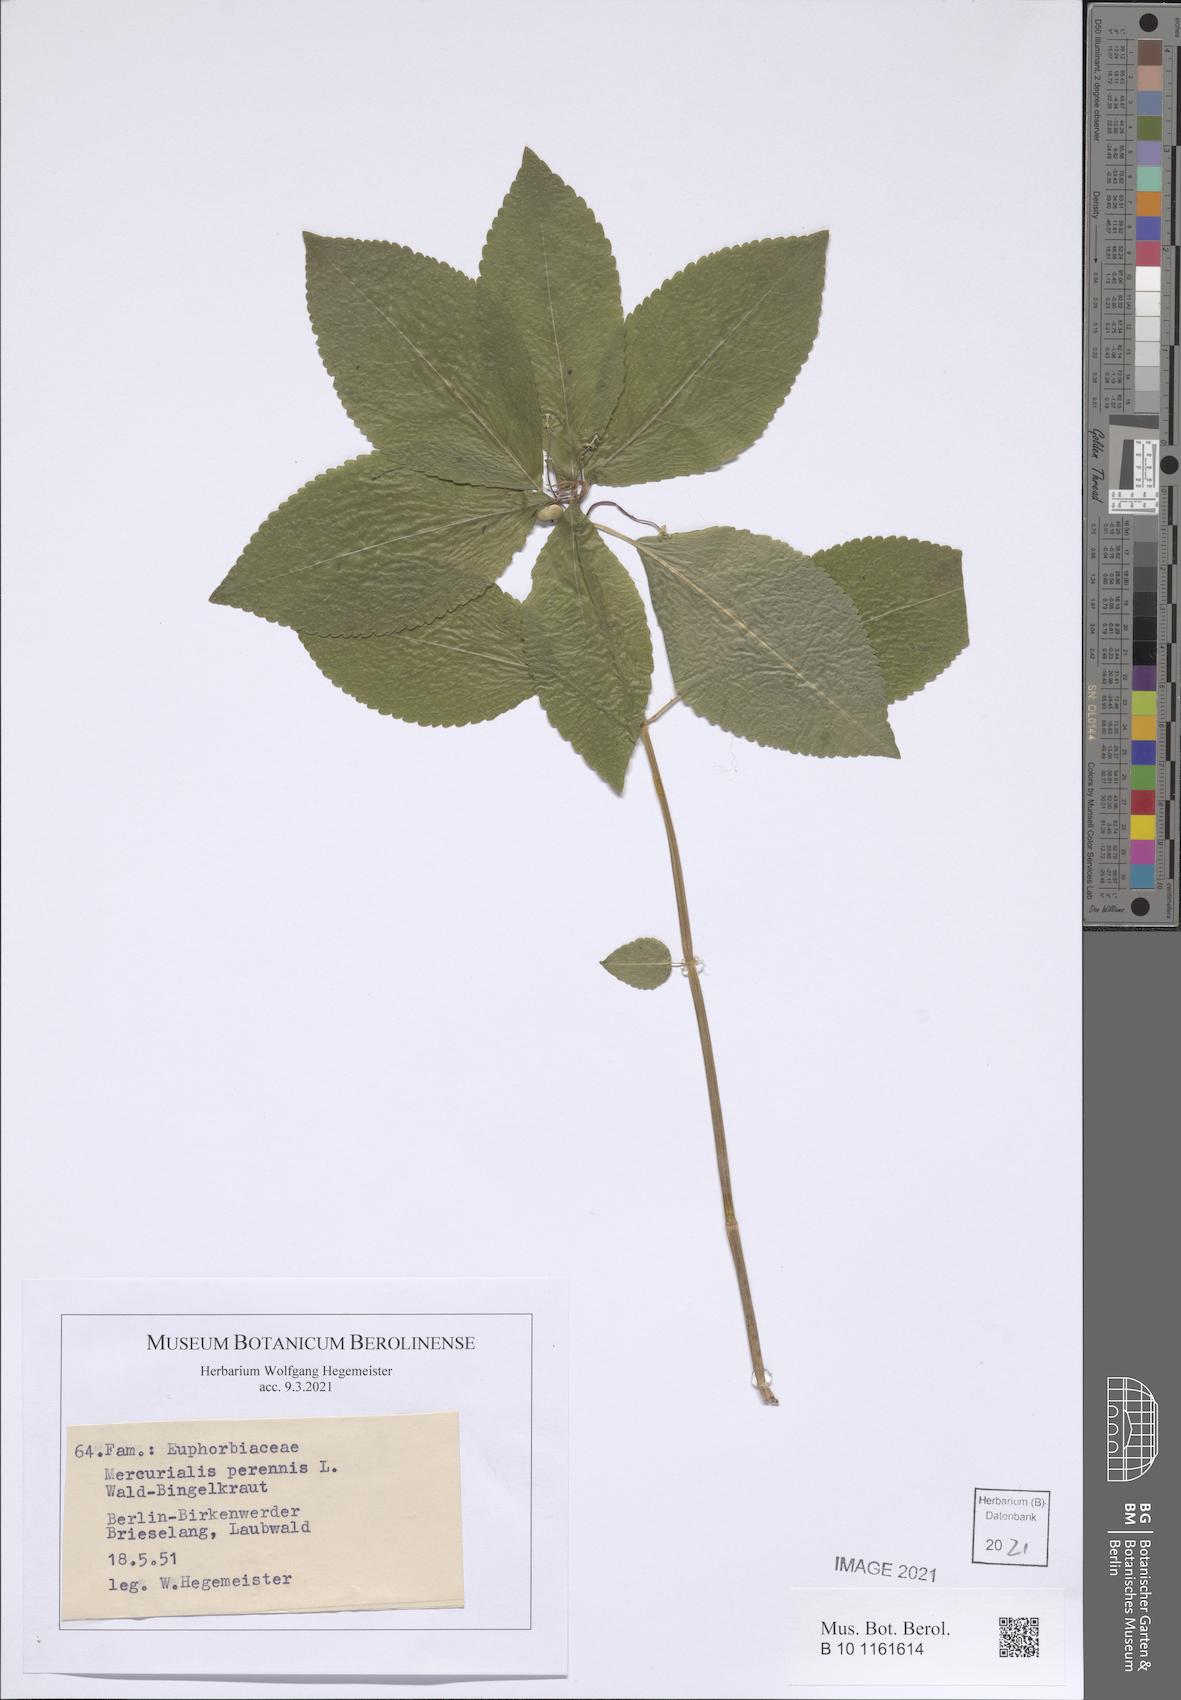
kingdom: Plantae
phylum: Tracheophyta
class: Magnoliopsida
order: Malpighiales
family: Euphorbiaceae
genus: Mercurialis
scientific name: Mercurialis perennis
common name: Dog mercury
